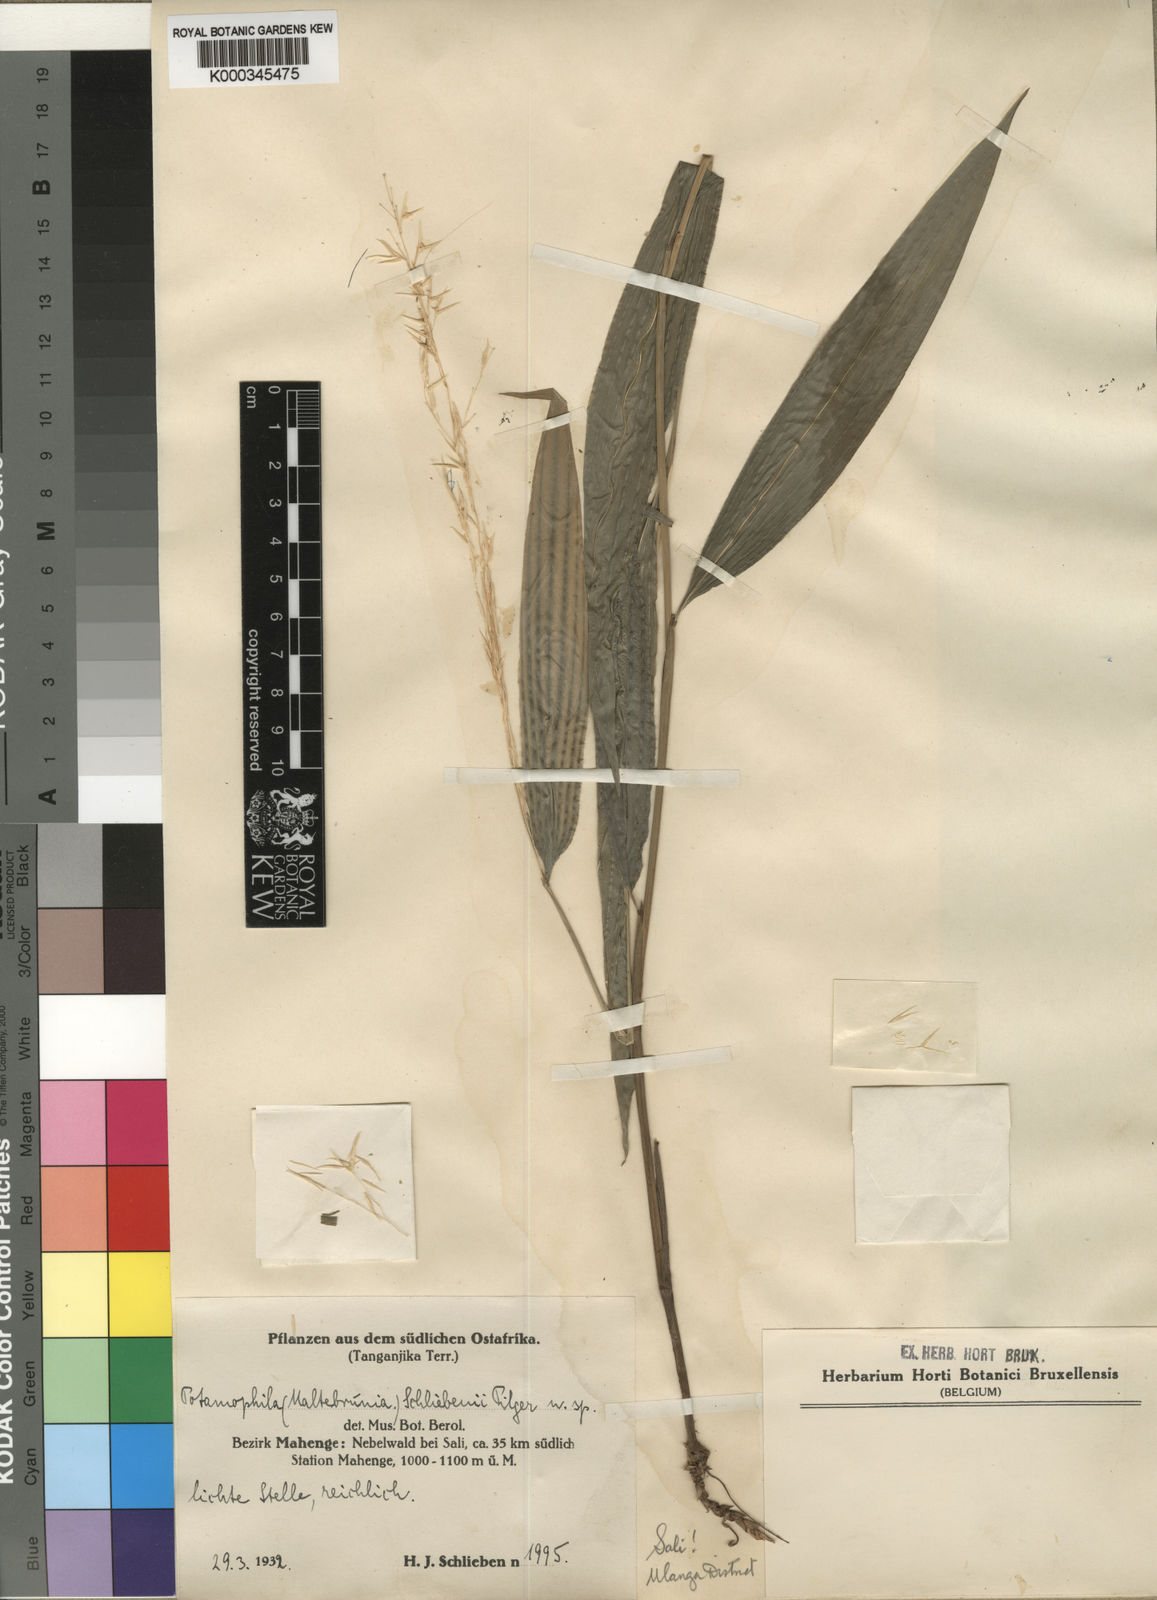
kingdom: Plantae
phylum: Tracheophyta
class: Liliopsida
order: Poales
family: Poaceae
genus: Maltebrunia
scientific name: Maltebrunia schliebenii
